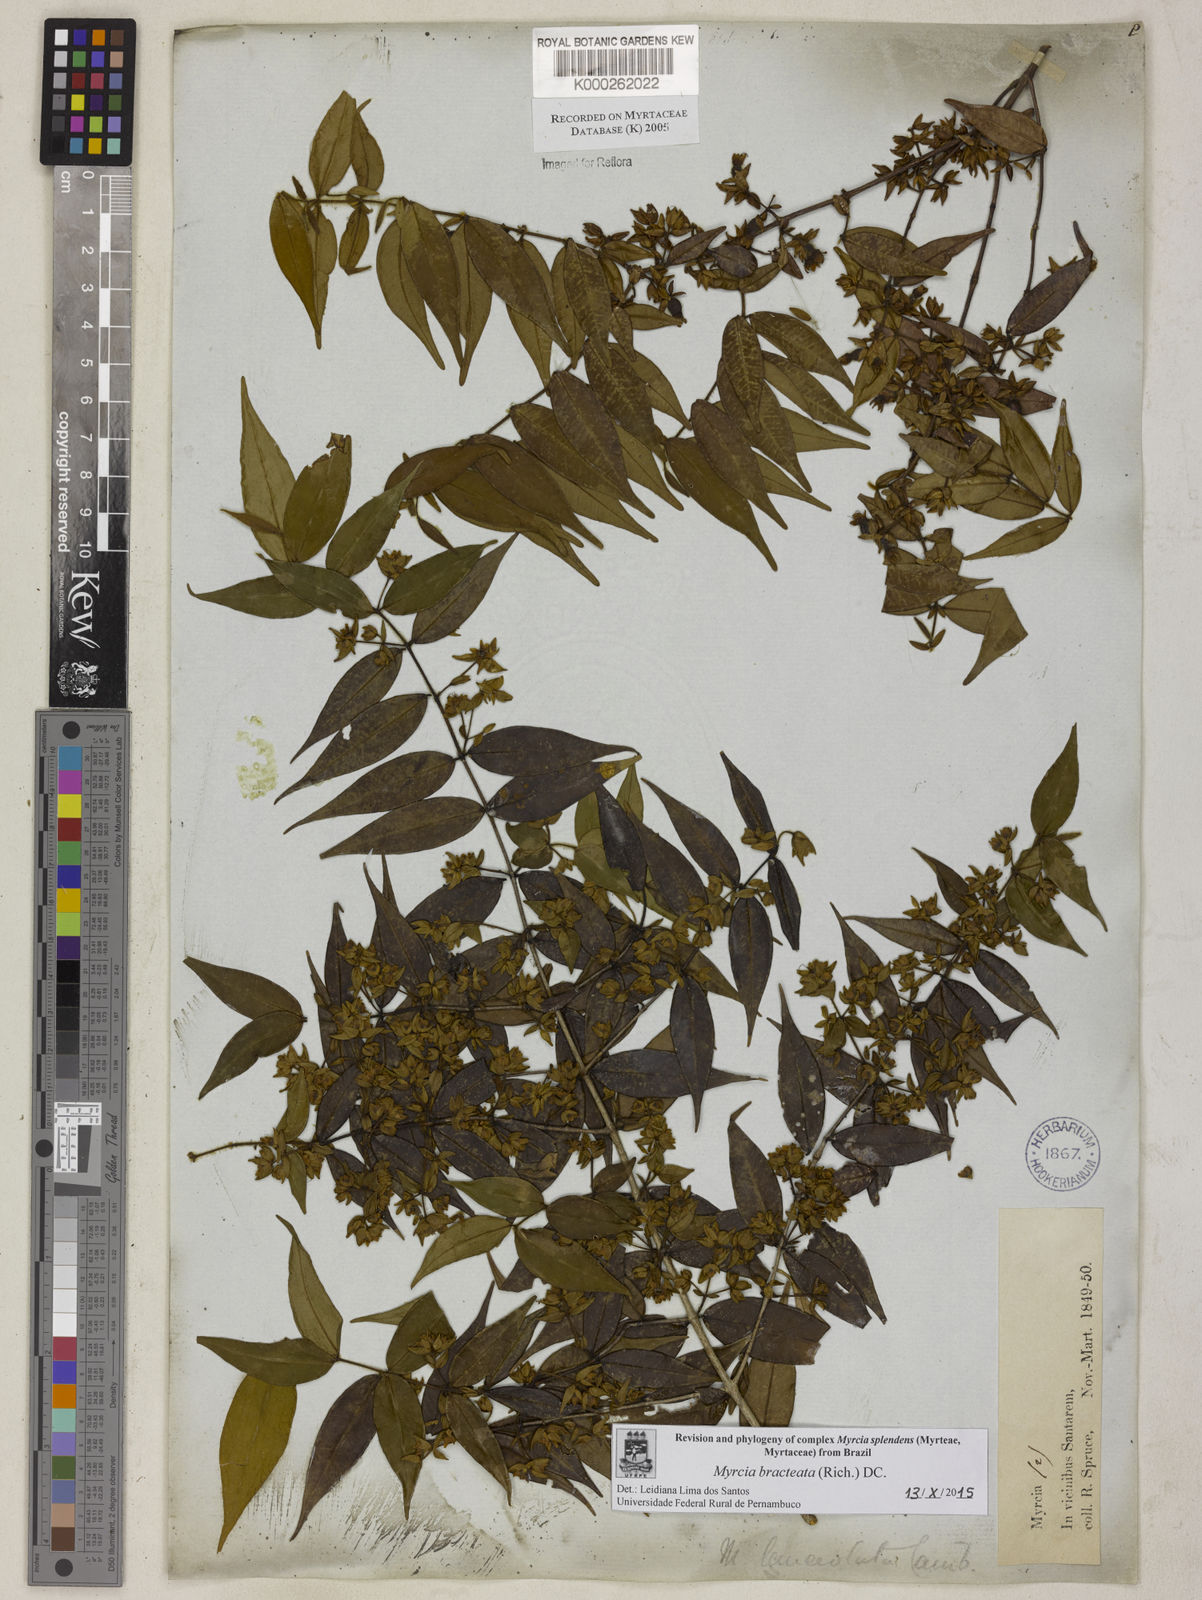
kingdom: Plantae
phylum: Tracheophyta
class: Magnoliopsida
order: Myrtales
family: Myrtaceae
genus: Myrcia
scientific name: Myrcia bracteata
